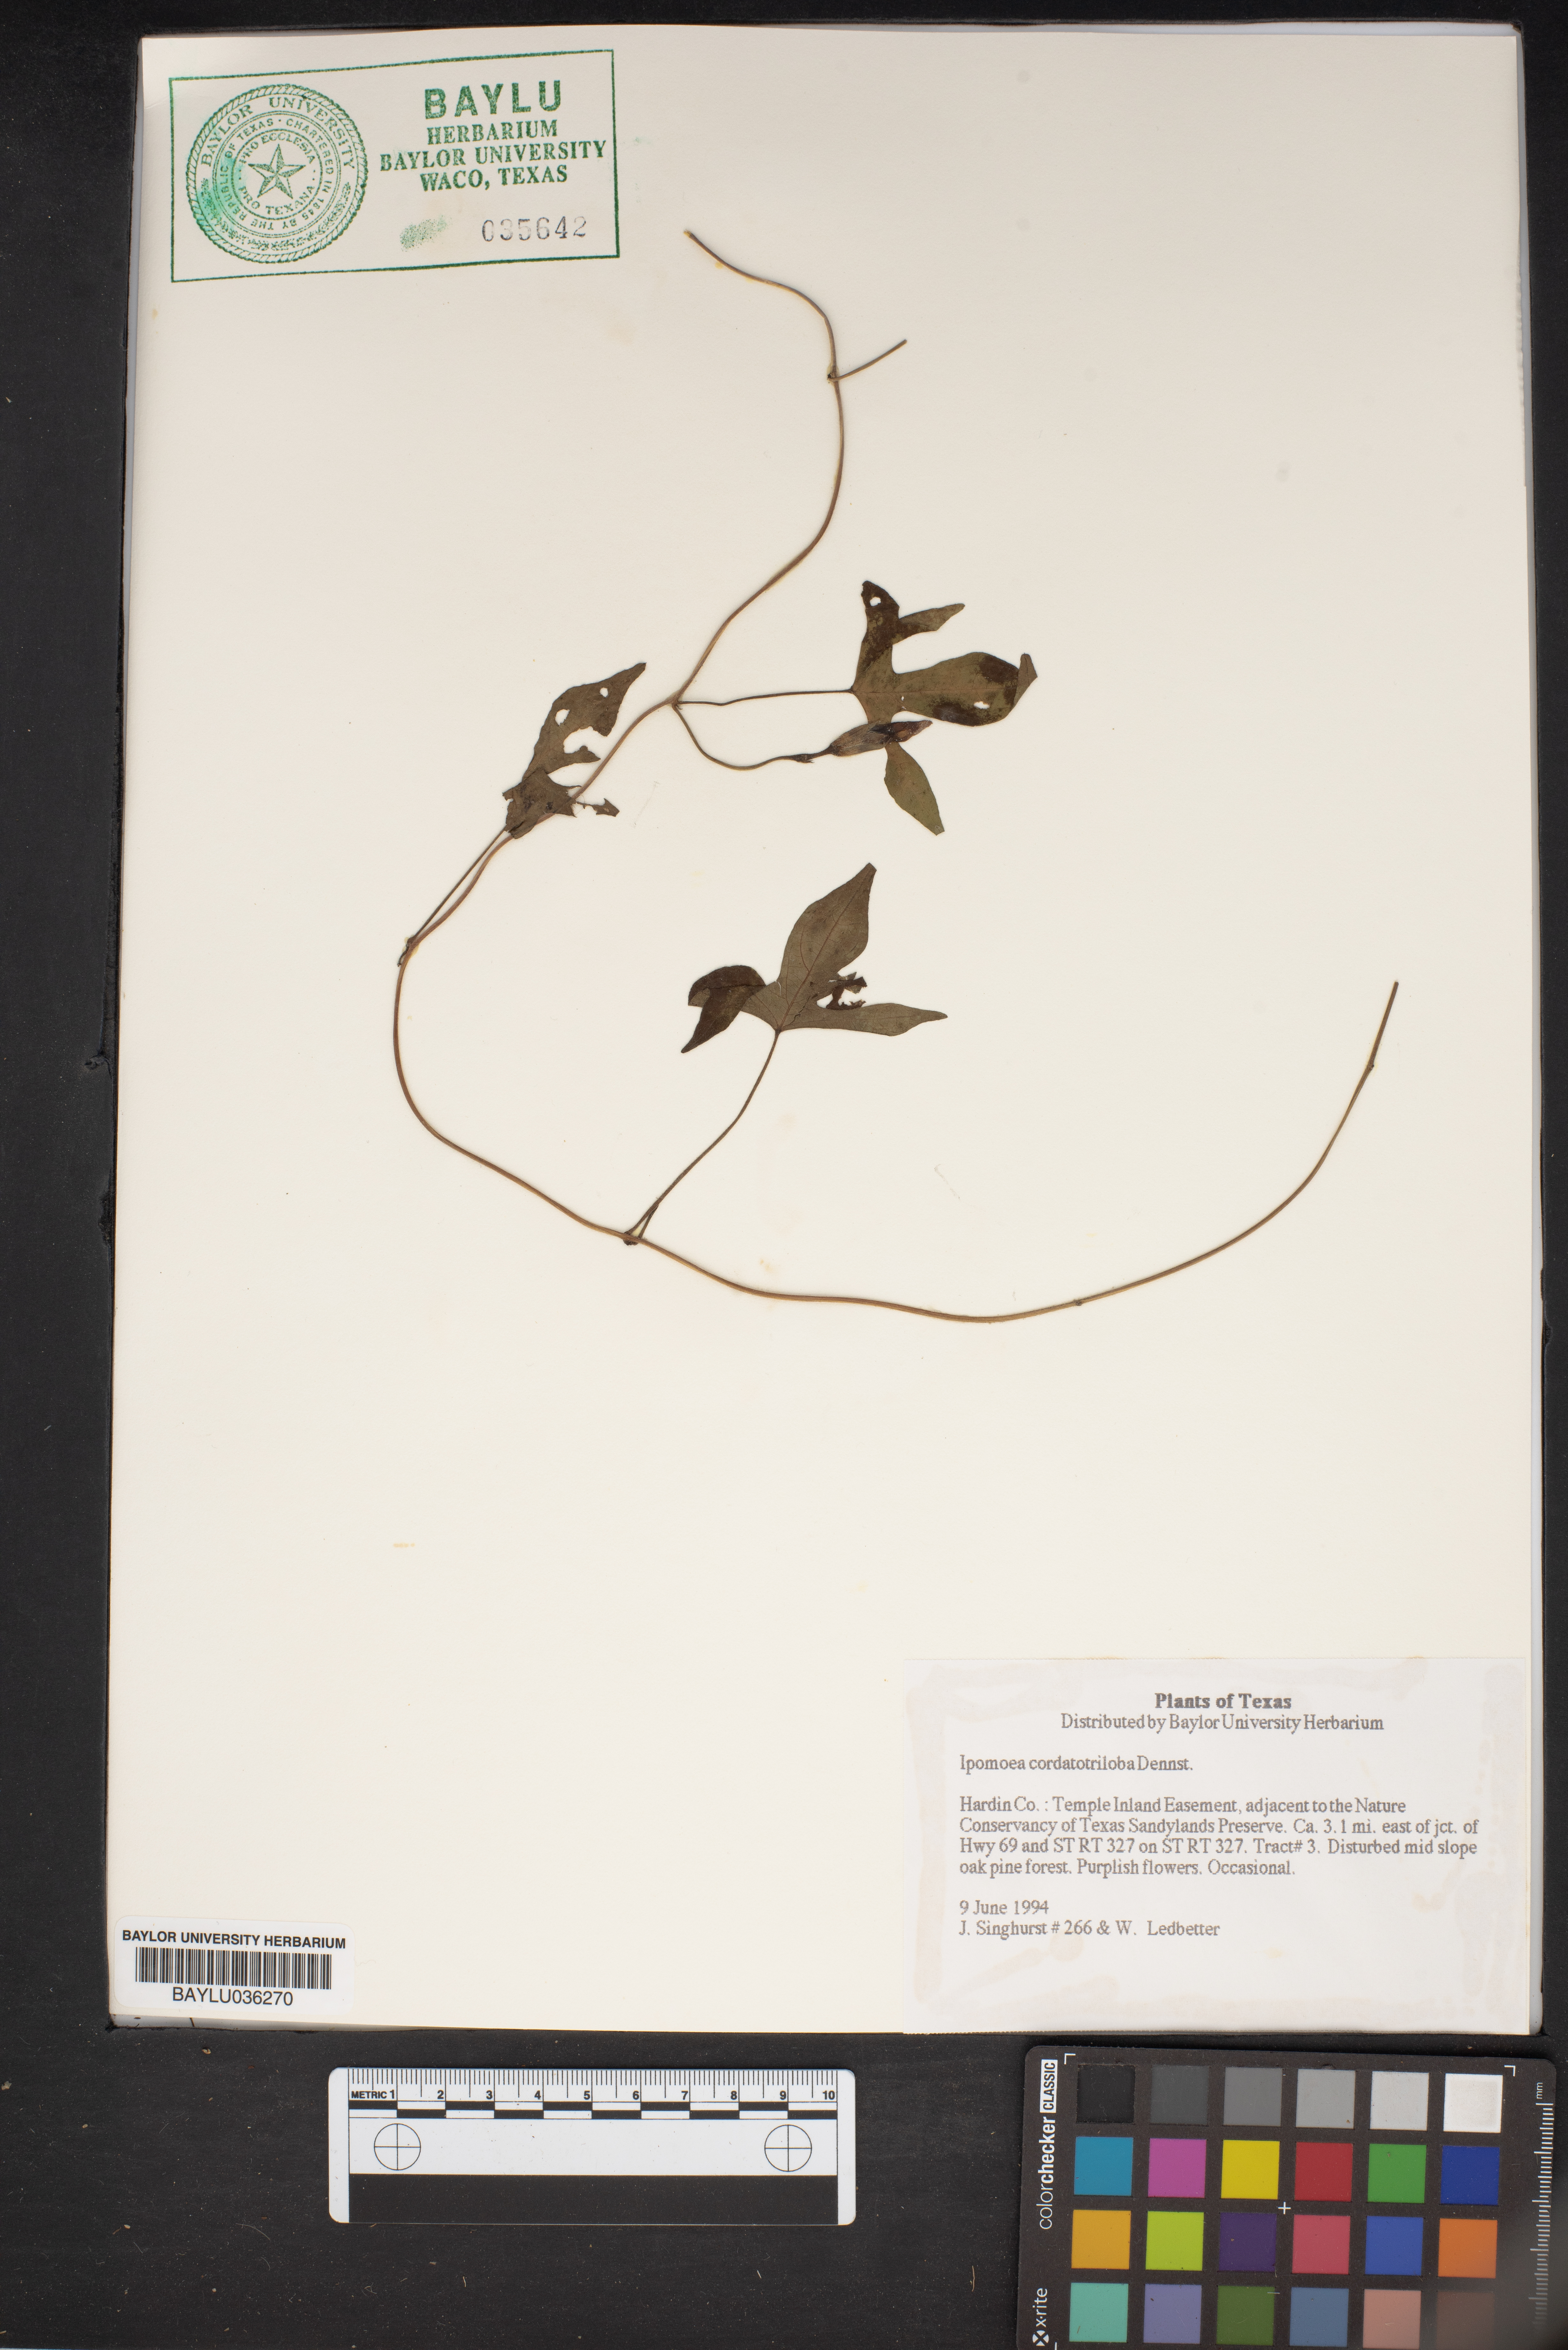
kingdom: Plantae
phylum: Tracheophyta
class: Magnoliopsida
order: Solanales
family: Convolvulaceae
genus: Ipomoea
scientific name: Ipomoea cordatotriloba
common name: Cotton morning glory
